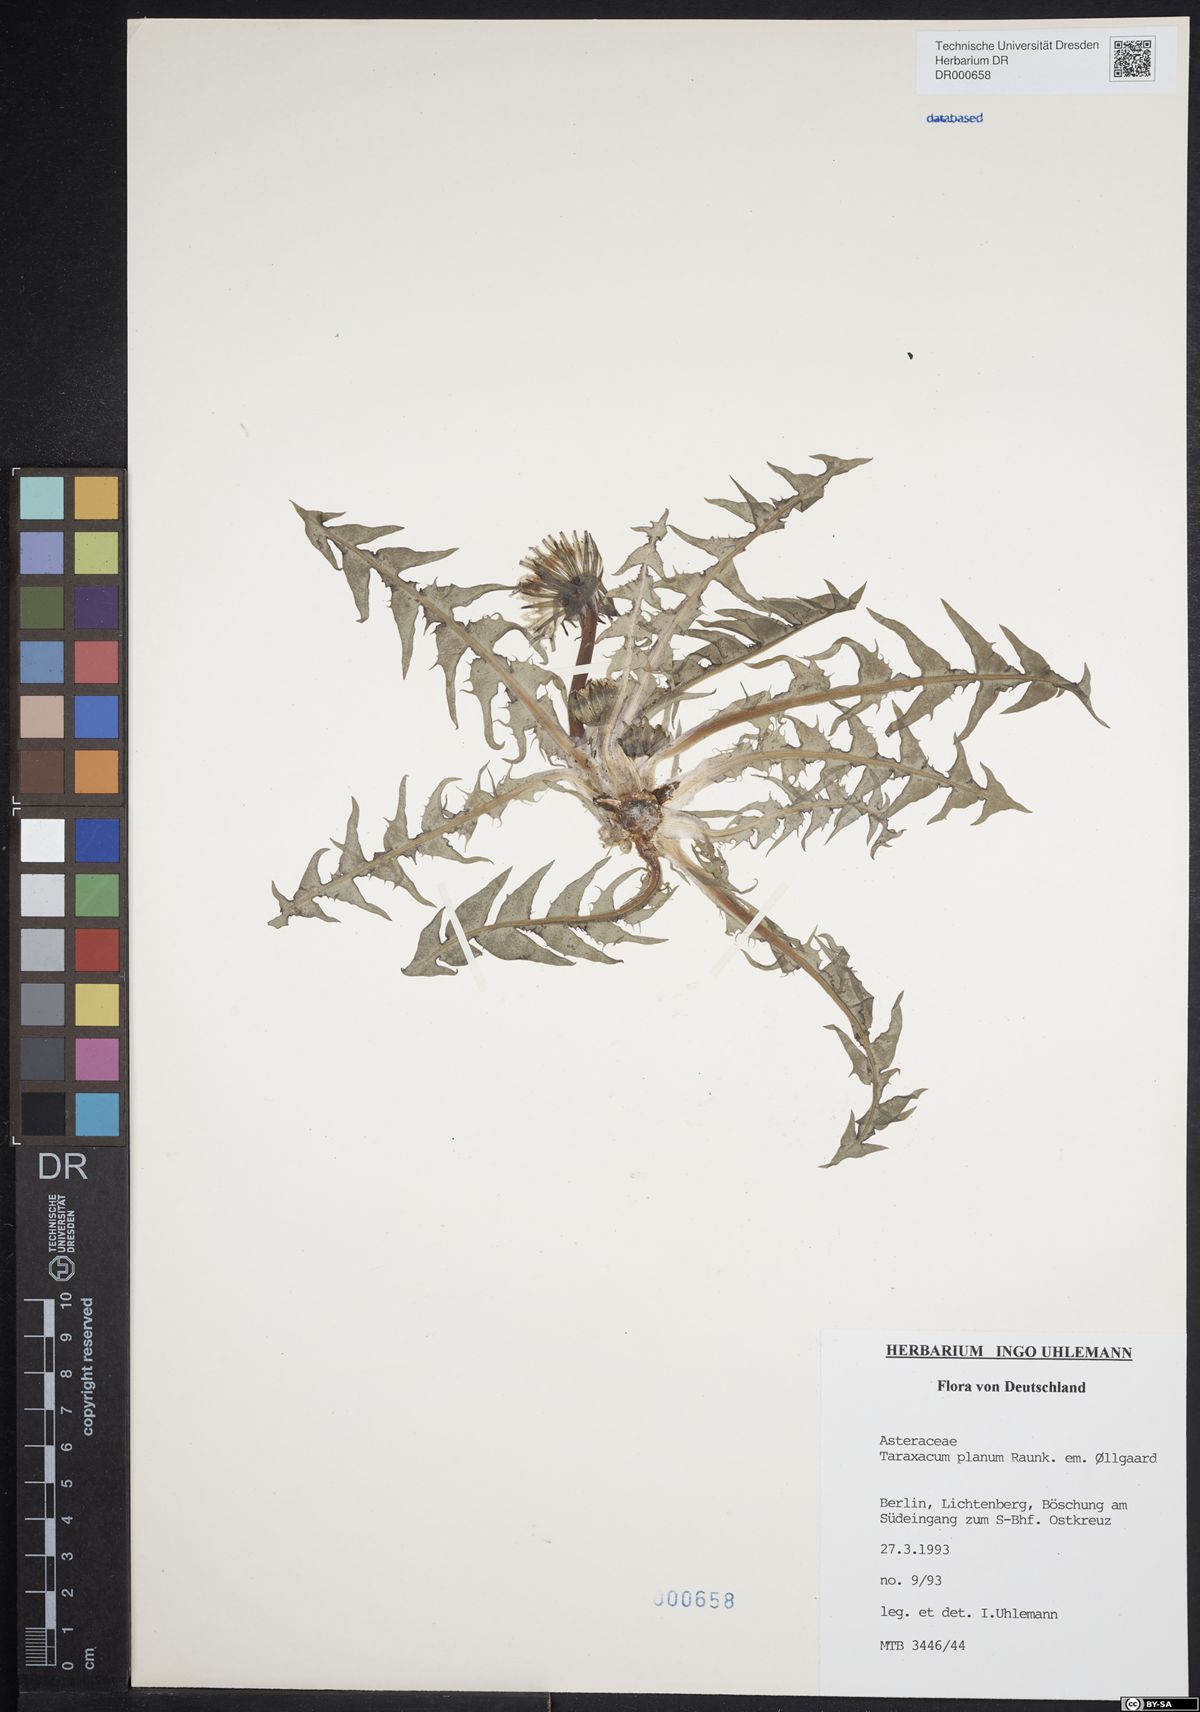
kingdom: Plantae
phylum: Tracheophyta
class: Magnoliopsida
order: Asterales
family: Asteraceae
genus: Taraxacum
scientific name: Taraxacum planum
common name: Diverse-leaved dandelion
